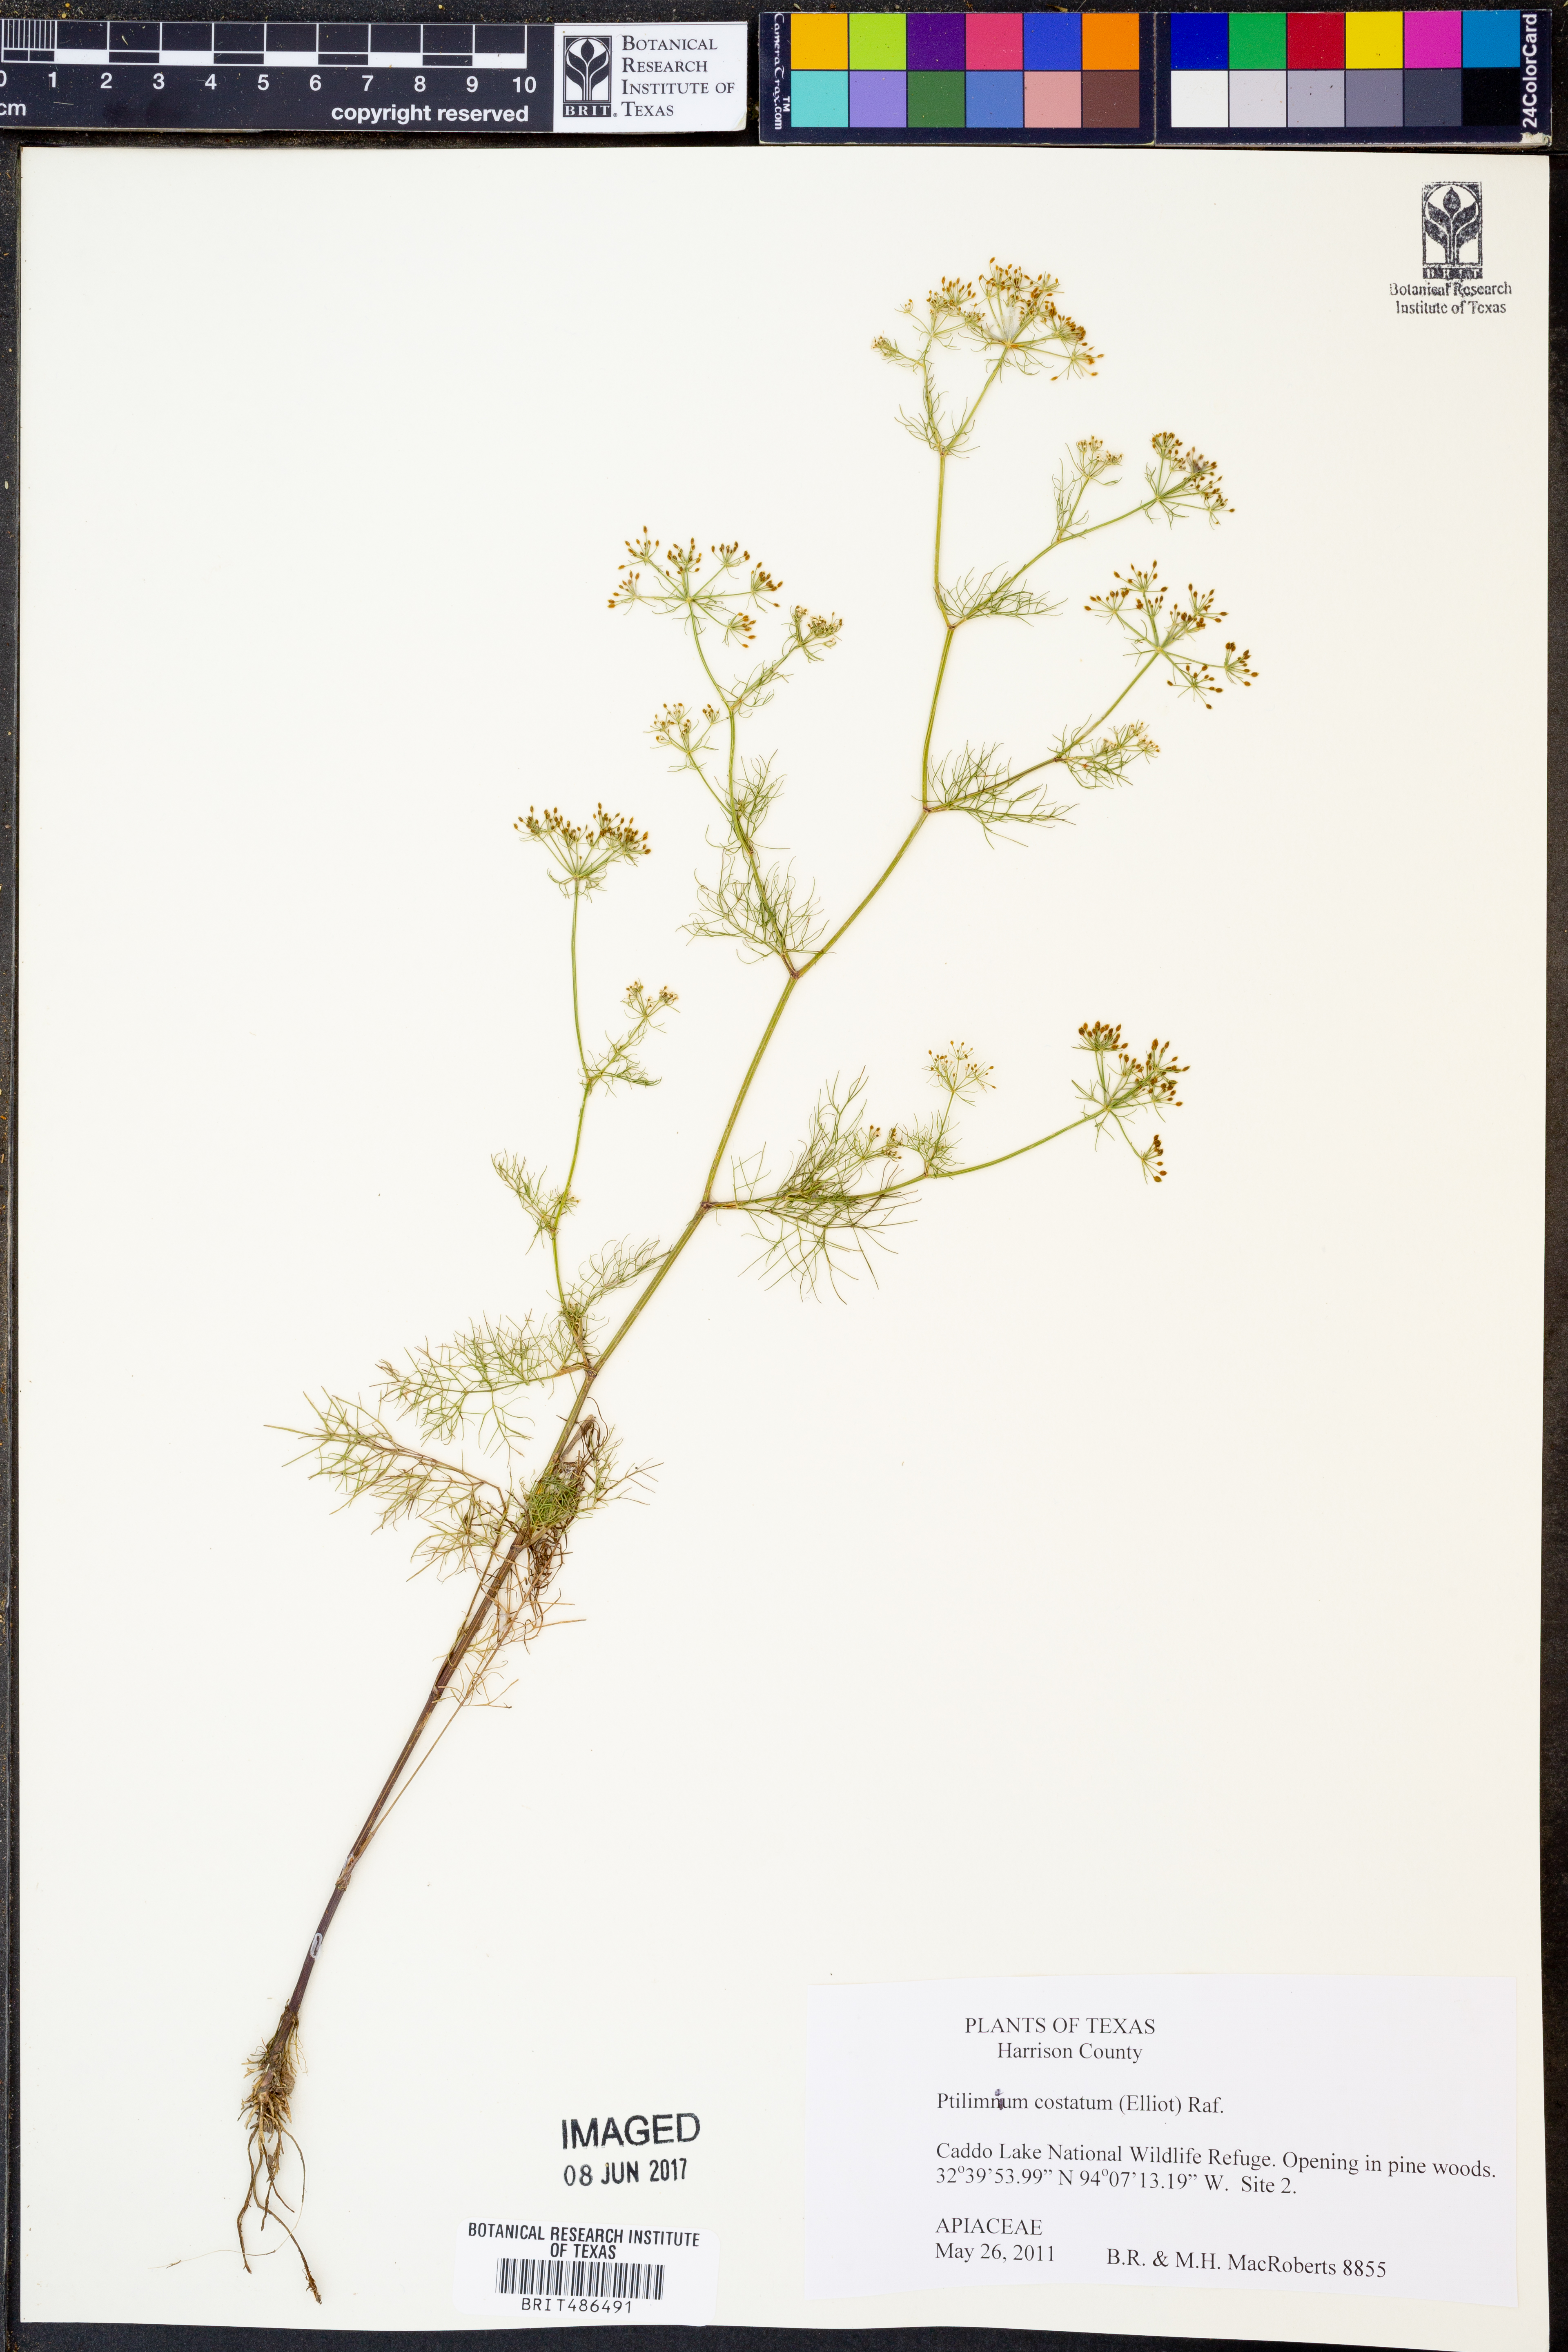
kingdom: Plantae
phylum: Tracheophyta
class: Magnoliopsida
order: Apiales
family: Apiaceae
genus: Ptilimnium
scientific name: Ptilimnium costatum
